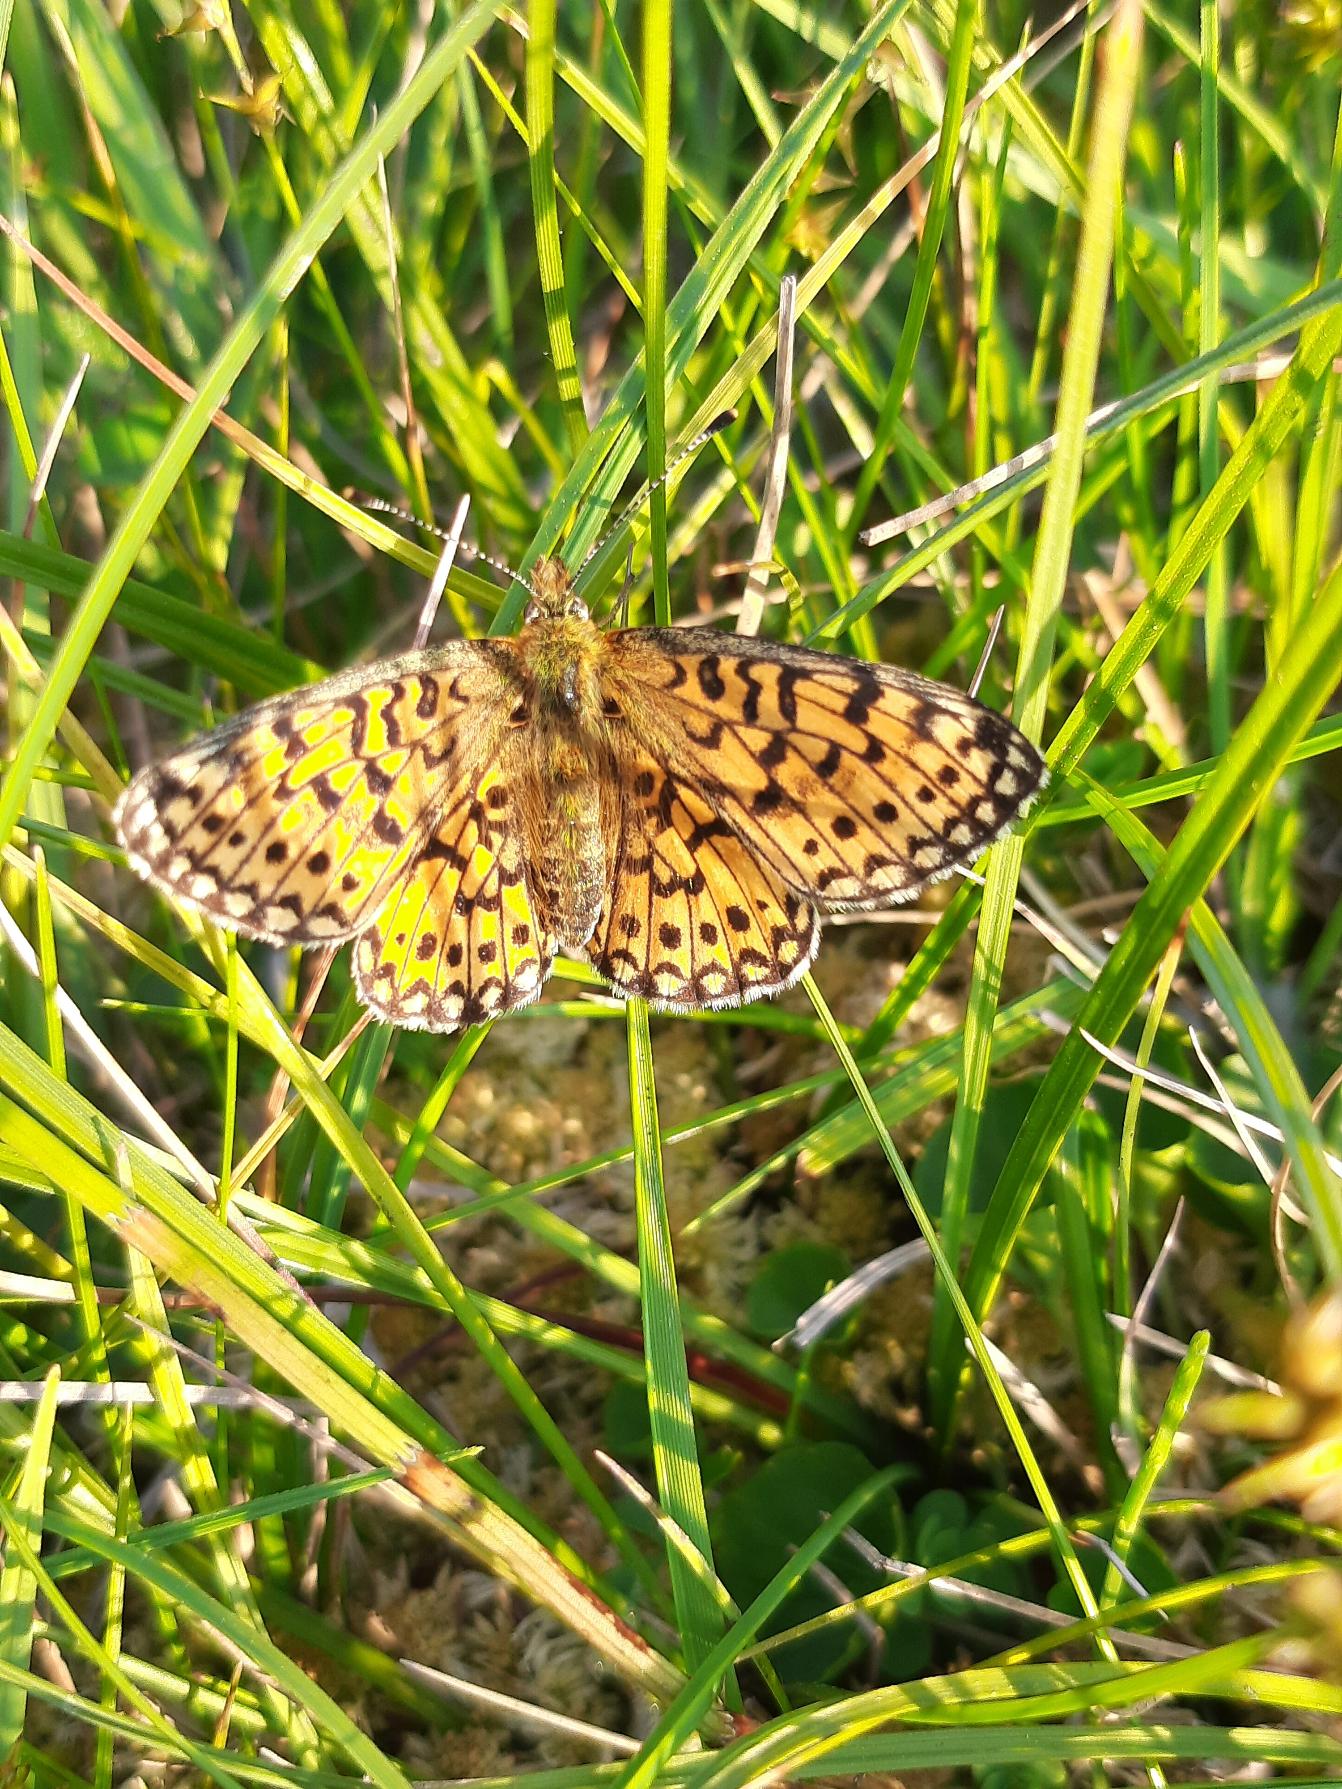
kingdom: Animalia
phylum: Arthropoda
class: Insecta
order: Lepidoptera
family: Nymphalidae
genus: Boloria
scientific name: Boloria selene
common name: Brunlig perlemorsommerfugl
